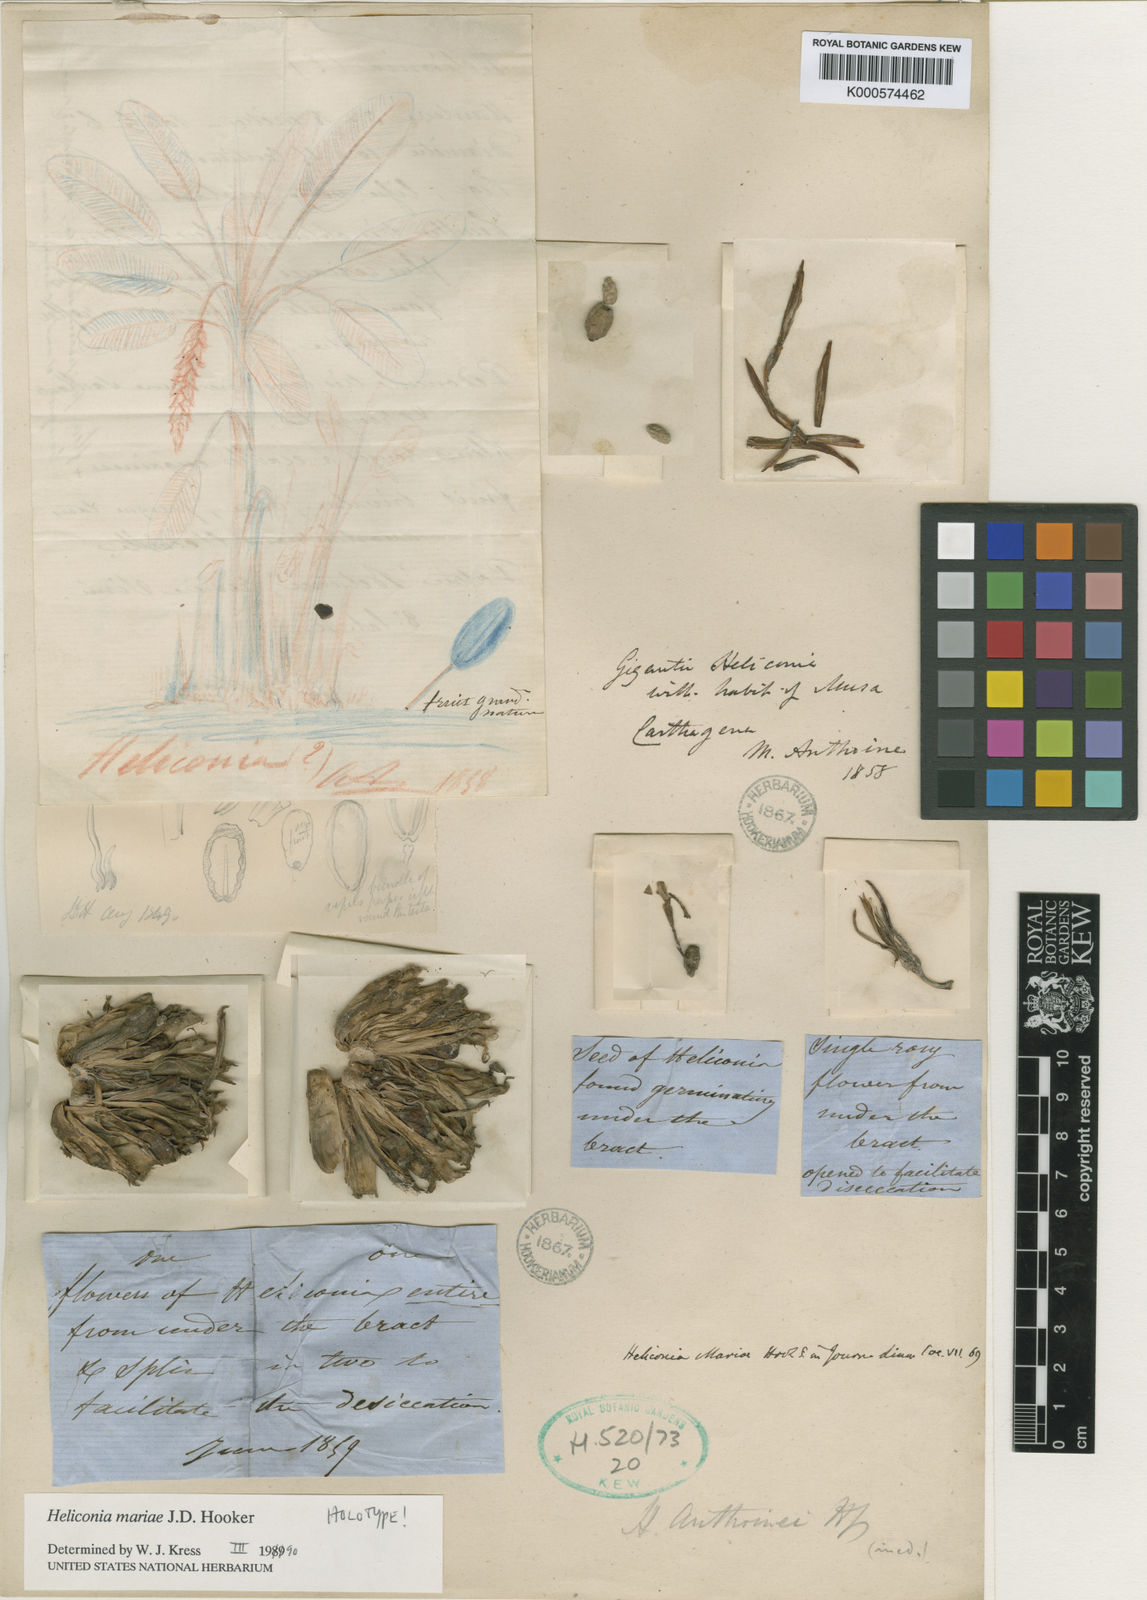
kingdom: Plantae
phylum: Tracheophyta
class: Liliopsida
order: Zingiberales
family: Heliconiaceae
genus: Heliconia
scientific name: Heliconia mariae
